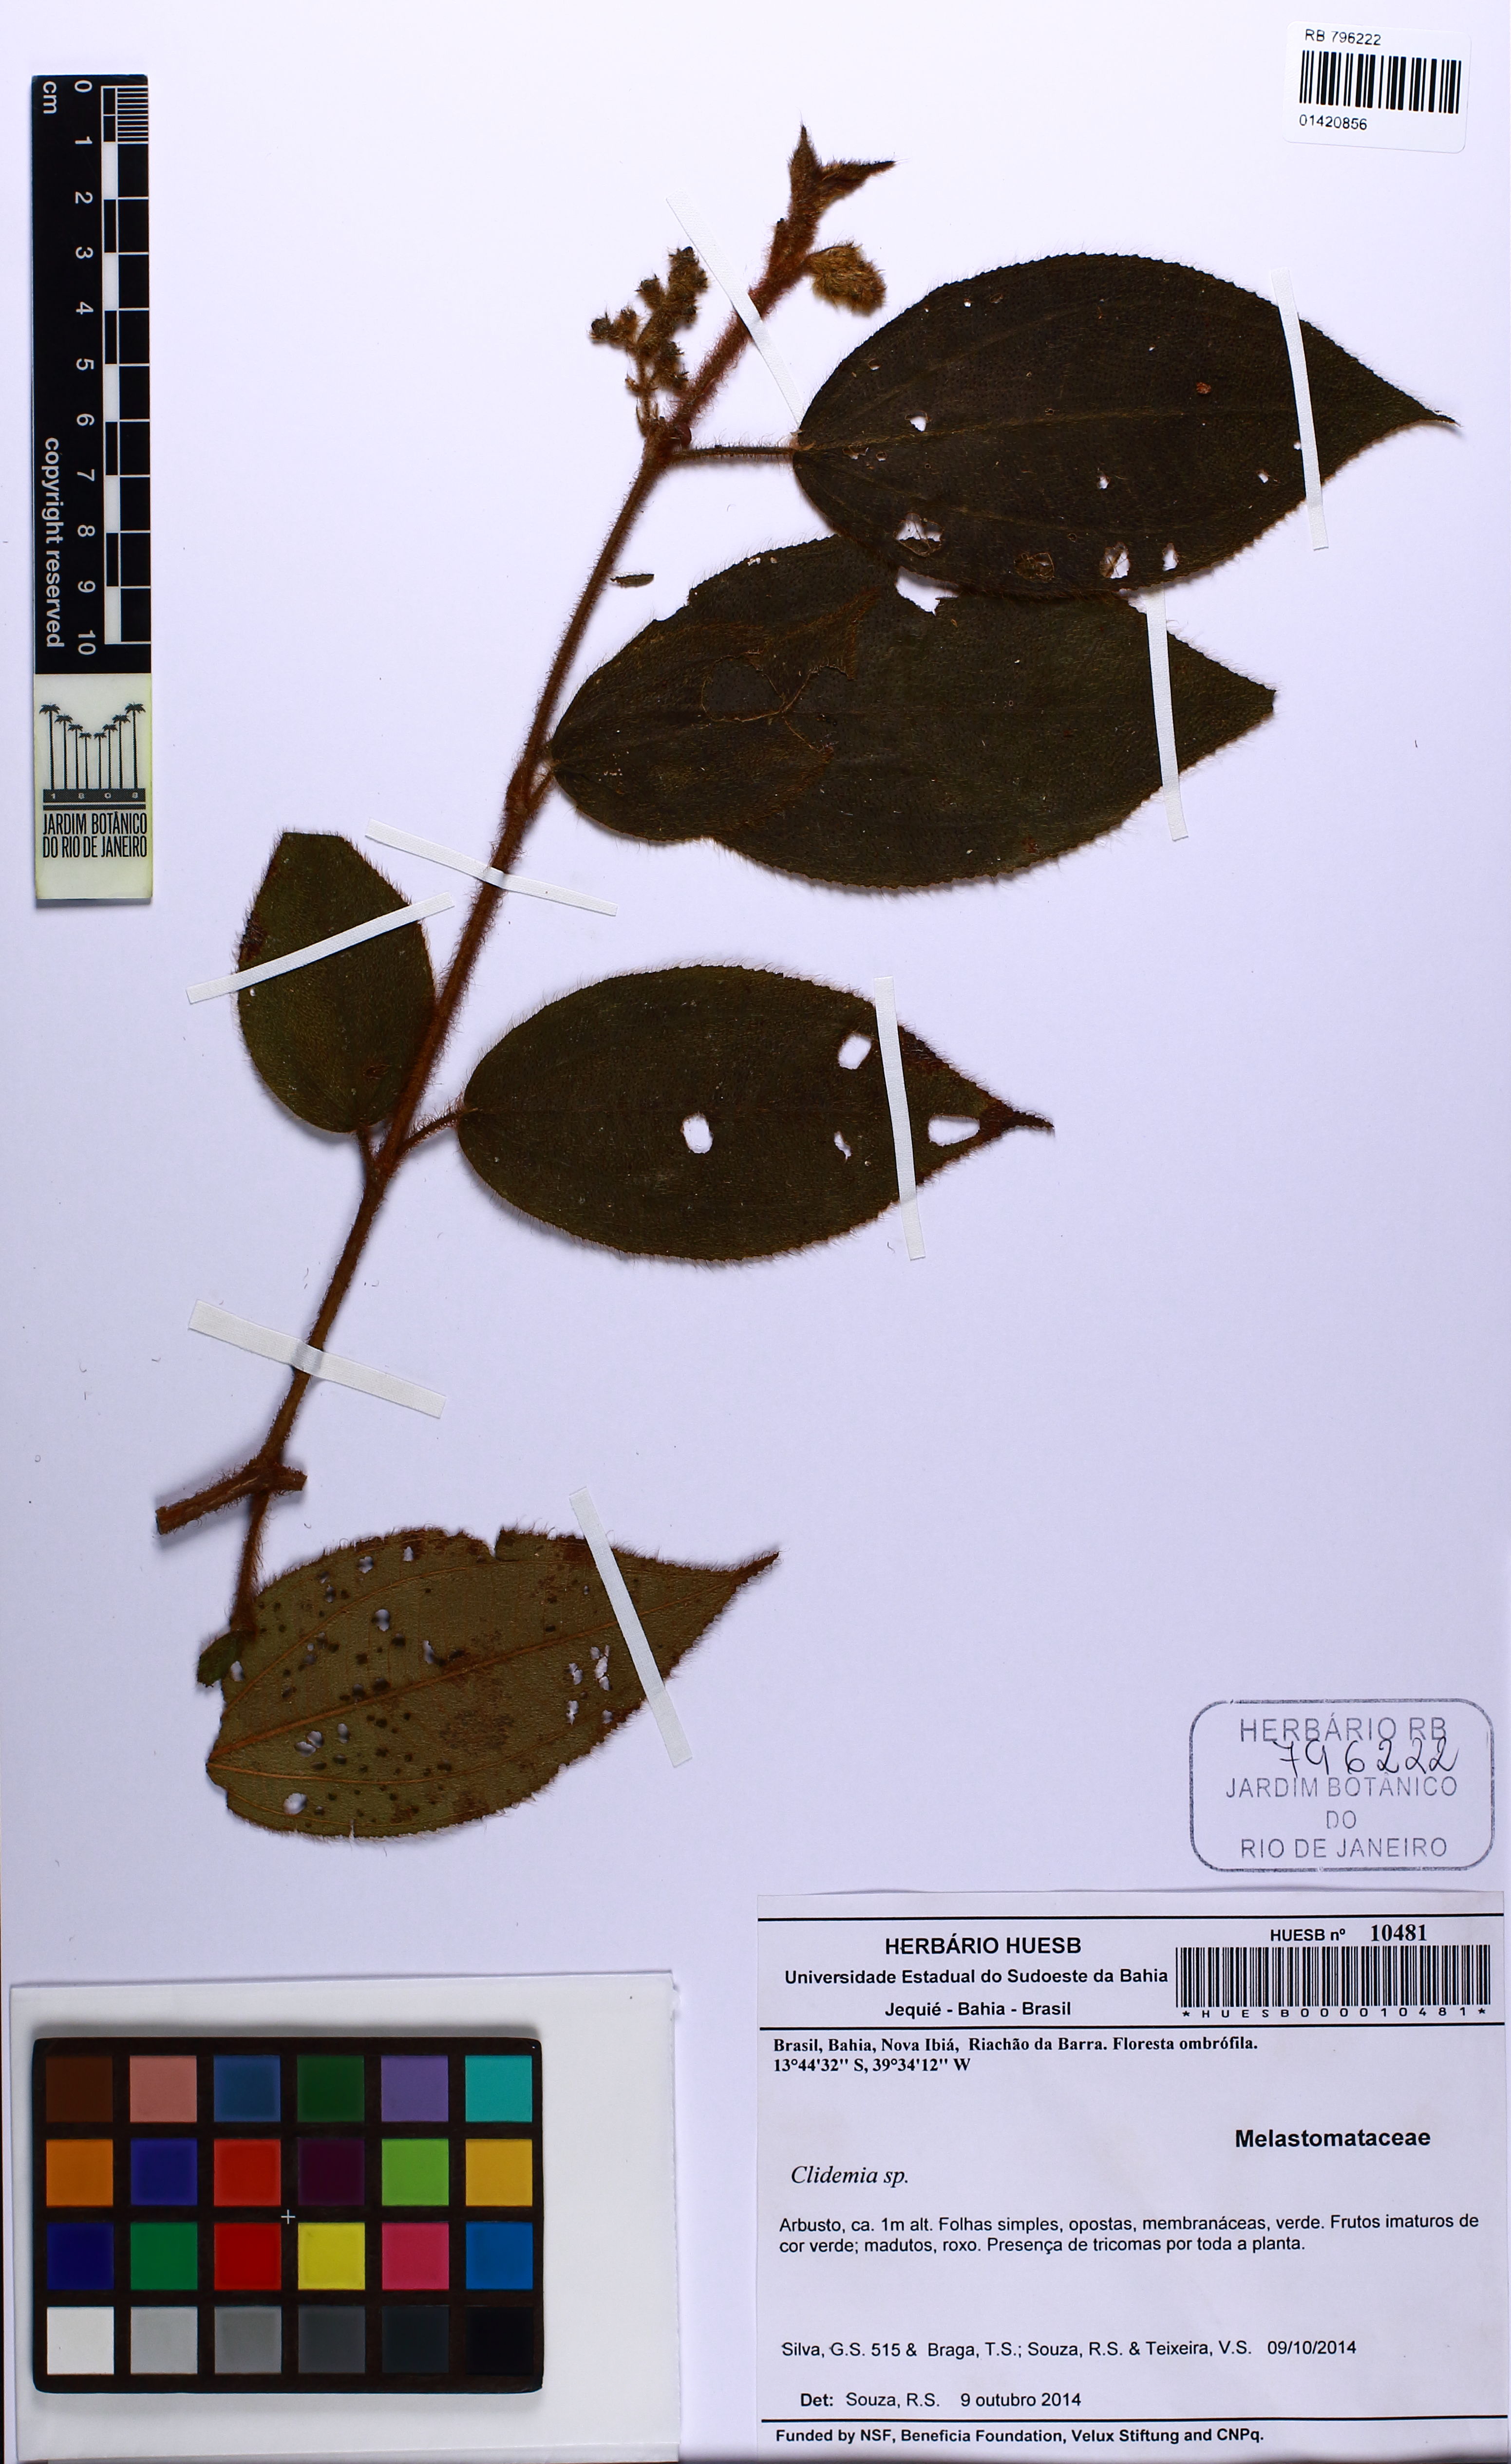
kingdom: Plantae
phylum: Tracheophyta
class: Magnoliopsida
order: Myrtales
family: Melastomataceae
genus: Miconia
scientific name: Miconia
